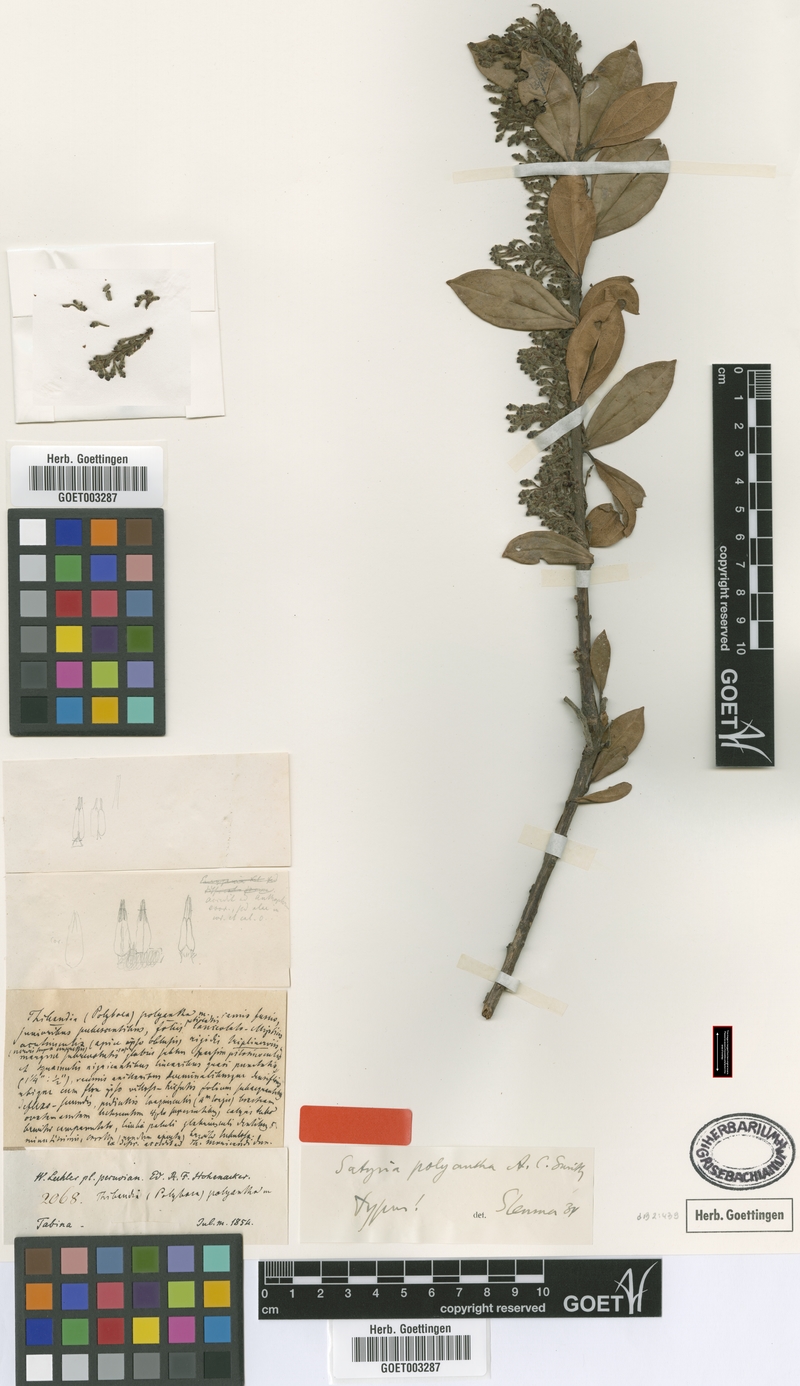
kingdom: Plantae
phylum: Tracheophyta
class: Magnoliopsida
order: Ericales
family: Ericaceae
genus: Satyria
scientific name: Satyria polyantha
